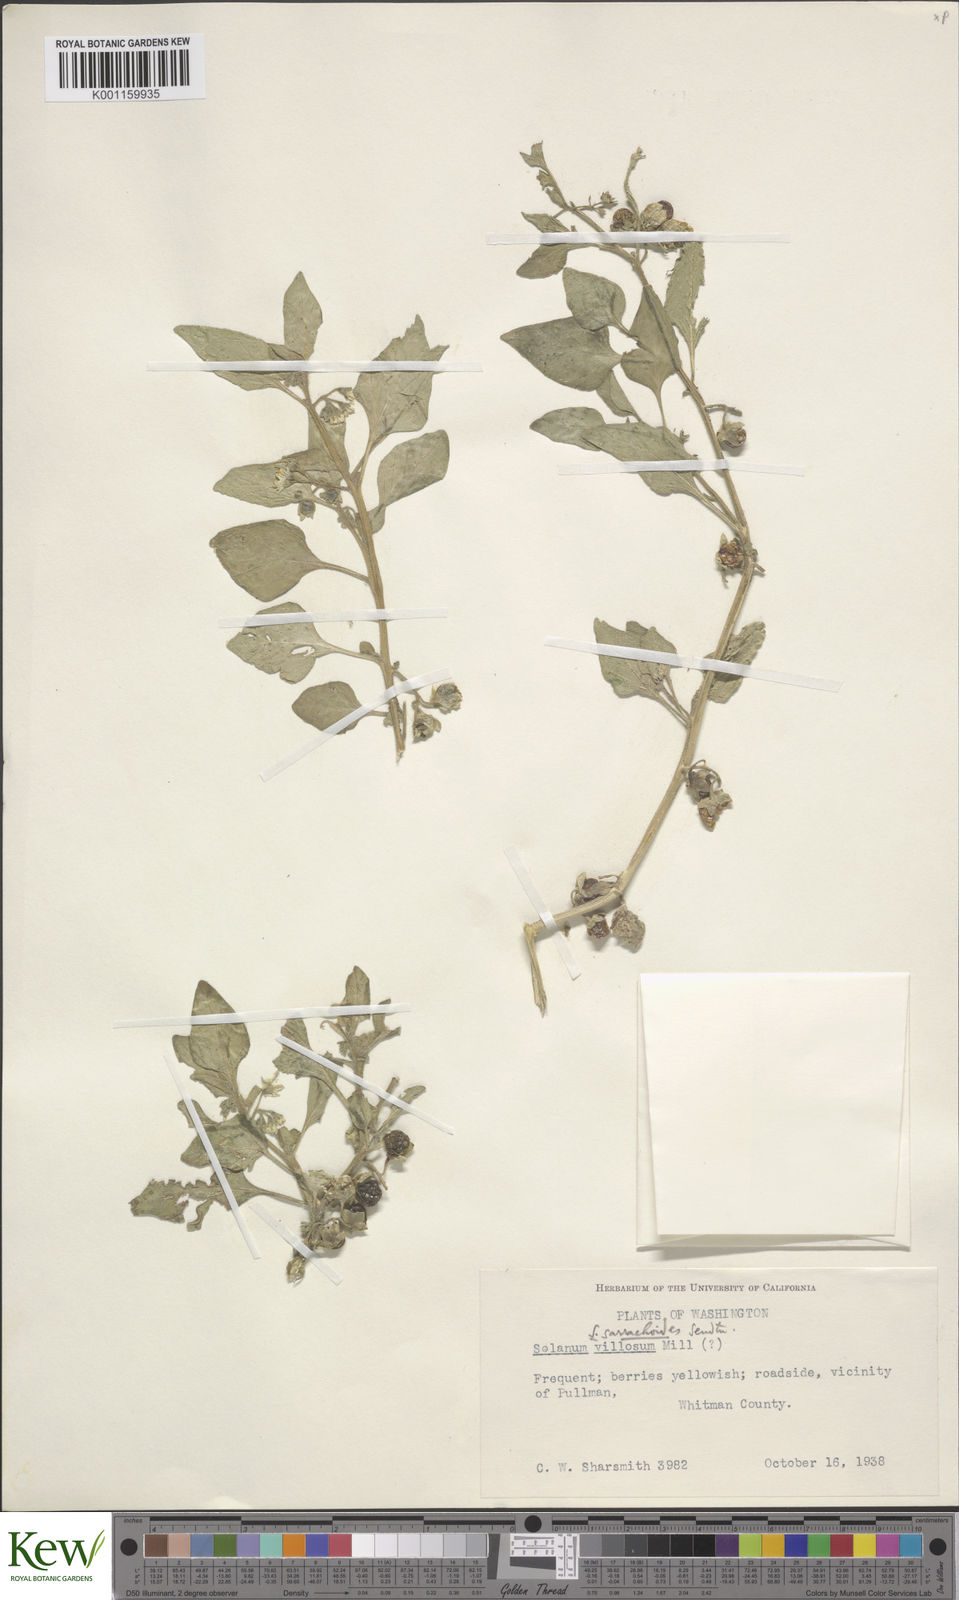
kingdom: Plantae
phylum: Tracheophyta
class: Magnoliopsida
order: Solanales
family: Solanaceae
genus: Solanum
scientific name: Solanum nitidibaccatum
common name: Hairy nightshade
